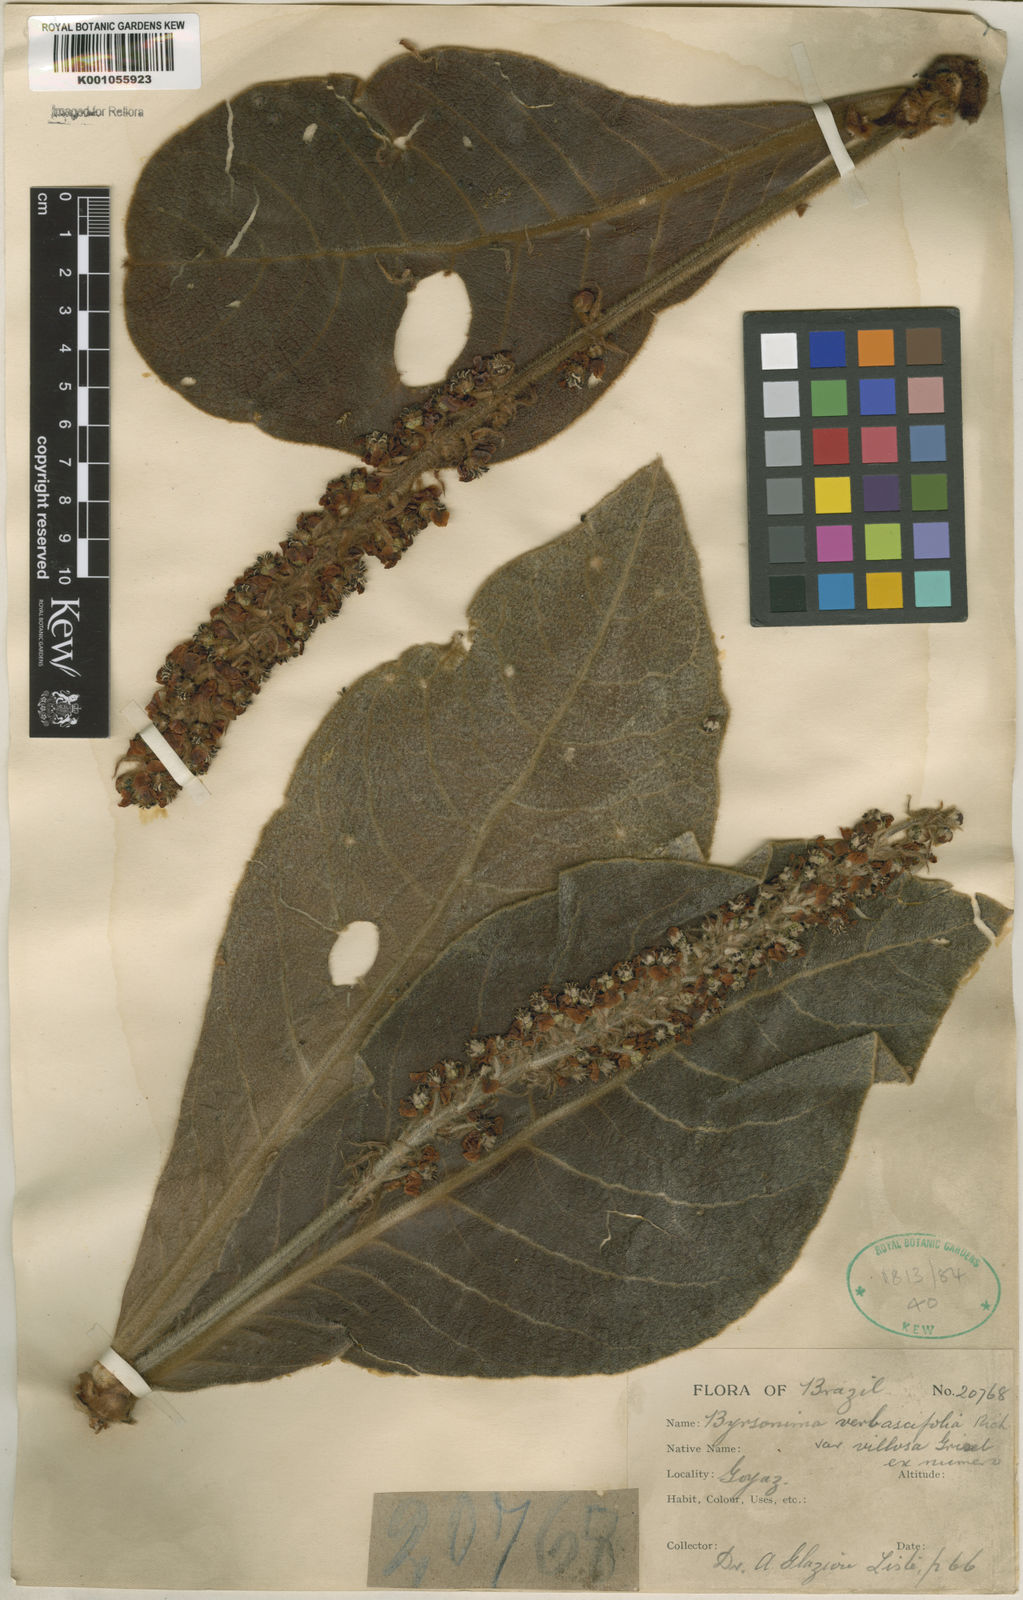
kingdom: Plantae
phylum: Tracheophyta
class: Magnoliopsida
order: Malpighiales
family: Malpighiaceae
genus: Byrsonima
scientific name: Byrsonima verbascifolia
